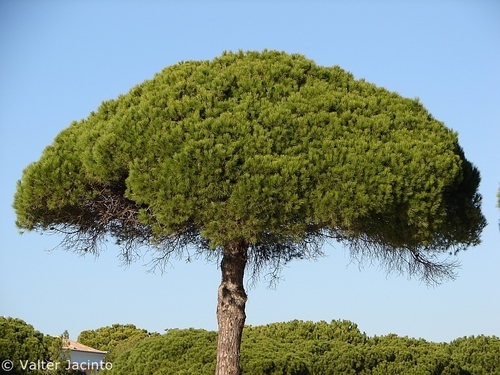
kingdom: Plantae
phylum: Tracheophyta
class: Pinopsida
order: Pinales
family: Pinaceae
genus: Pinus
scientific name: Pinus pinea
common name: Italian stone pine
